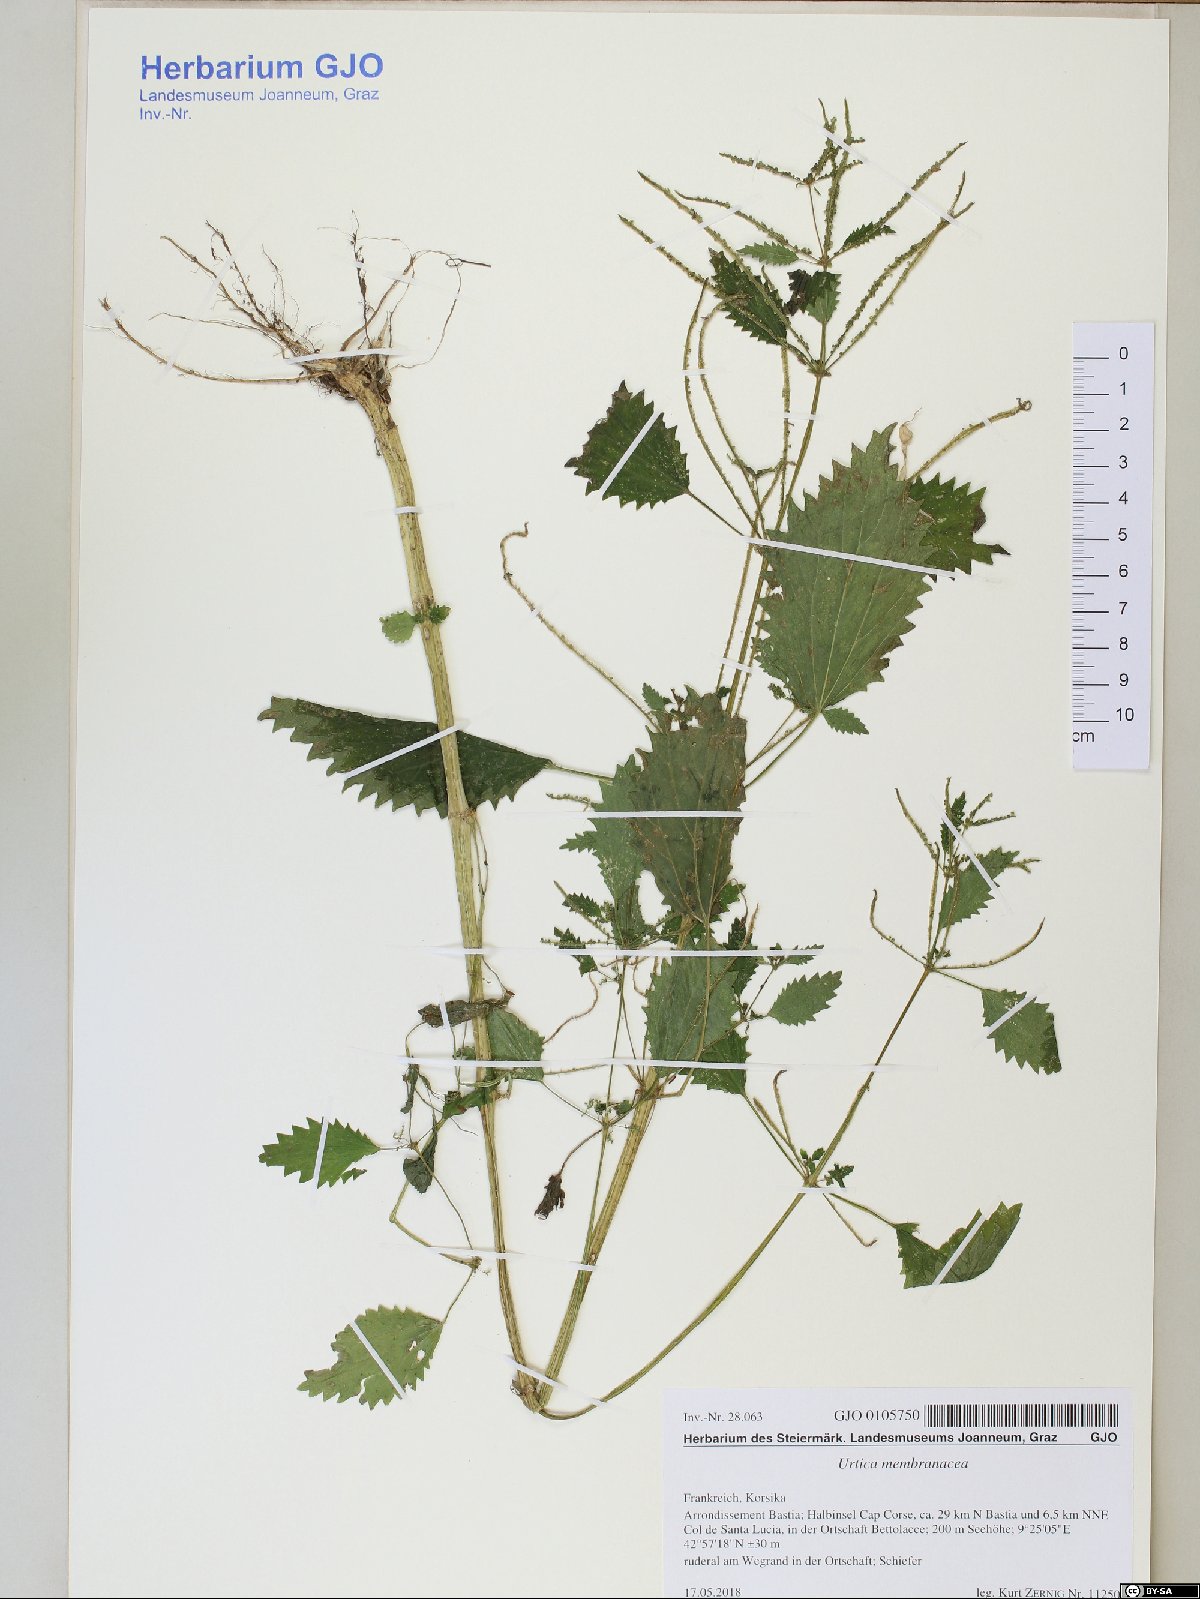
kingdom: Plantae
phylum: Tracheophyta
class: Magnoliopsida
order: Rosales
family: Urticaceae
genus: Urtica
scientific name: Urtica membranacea
